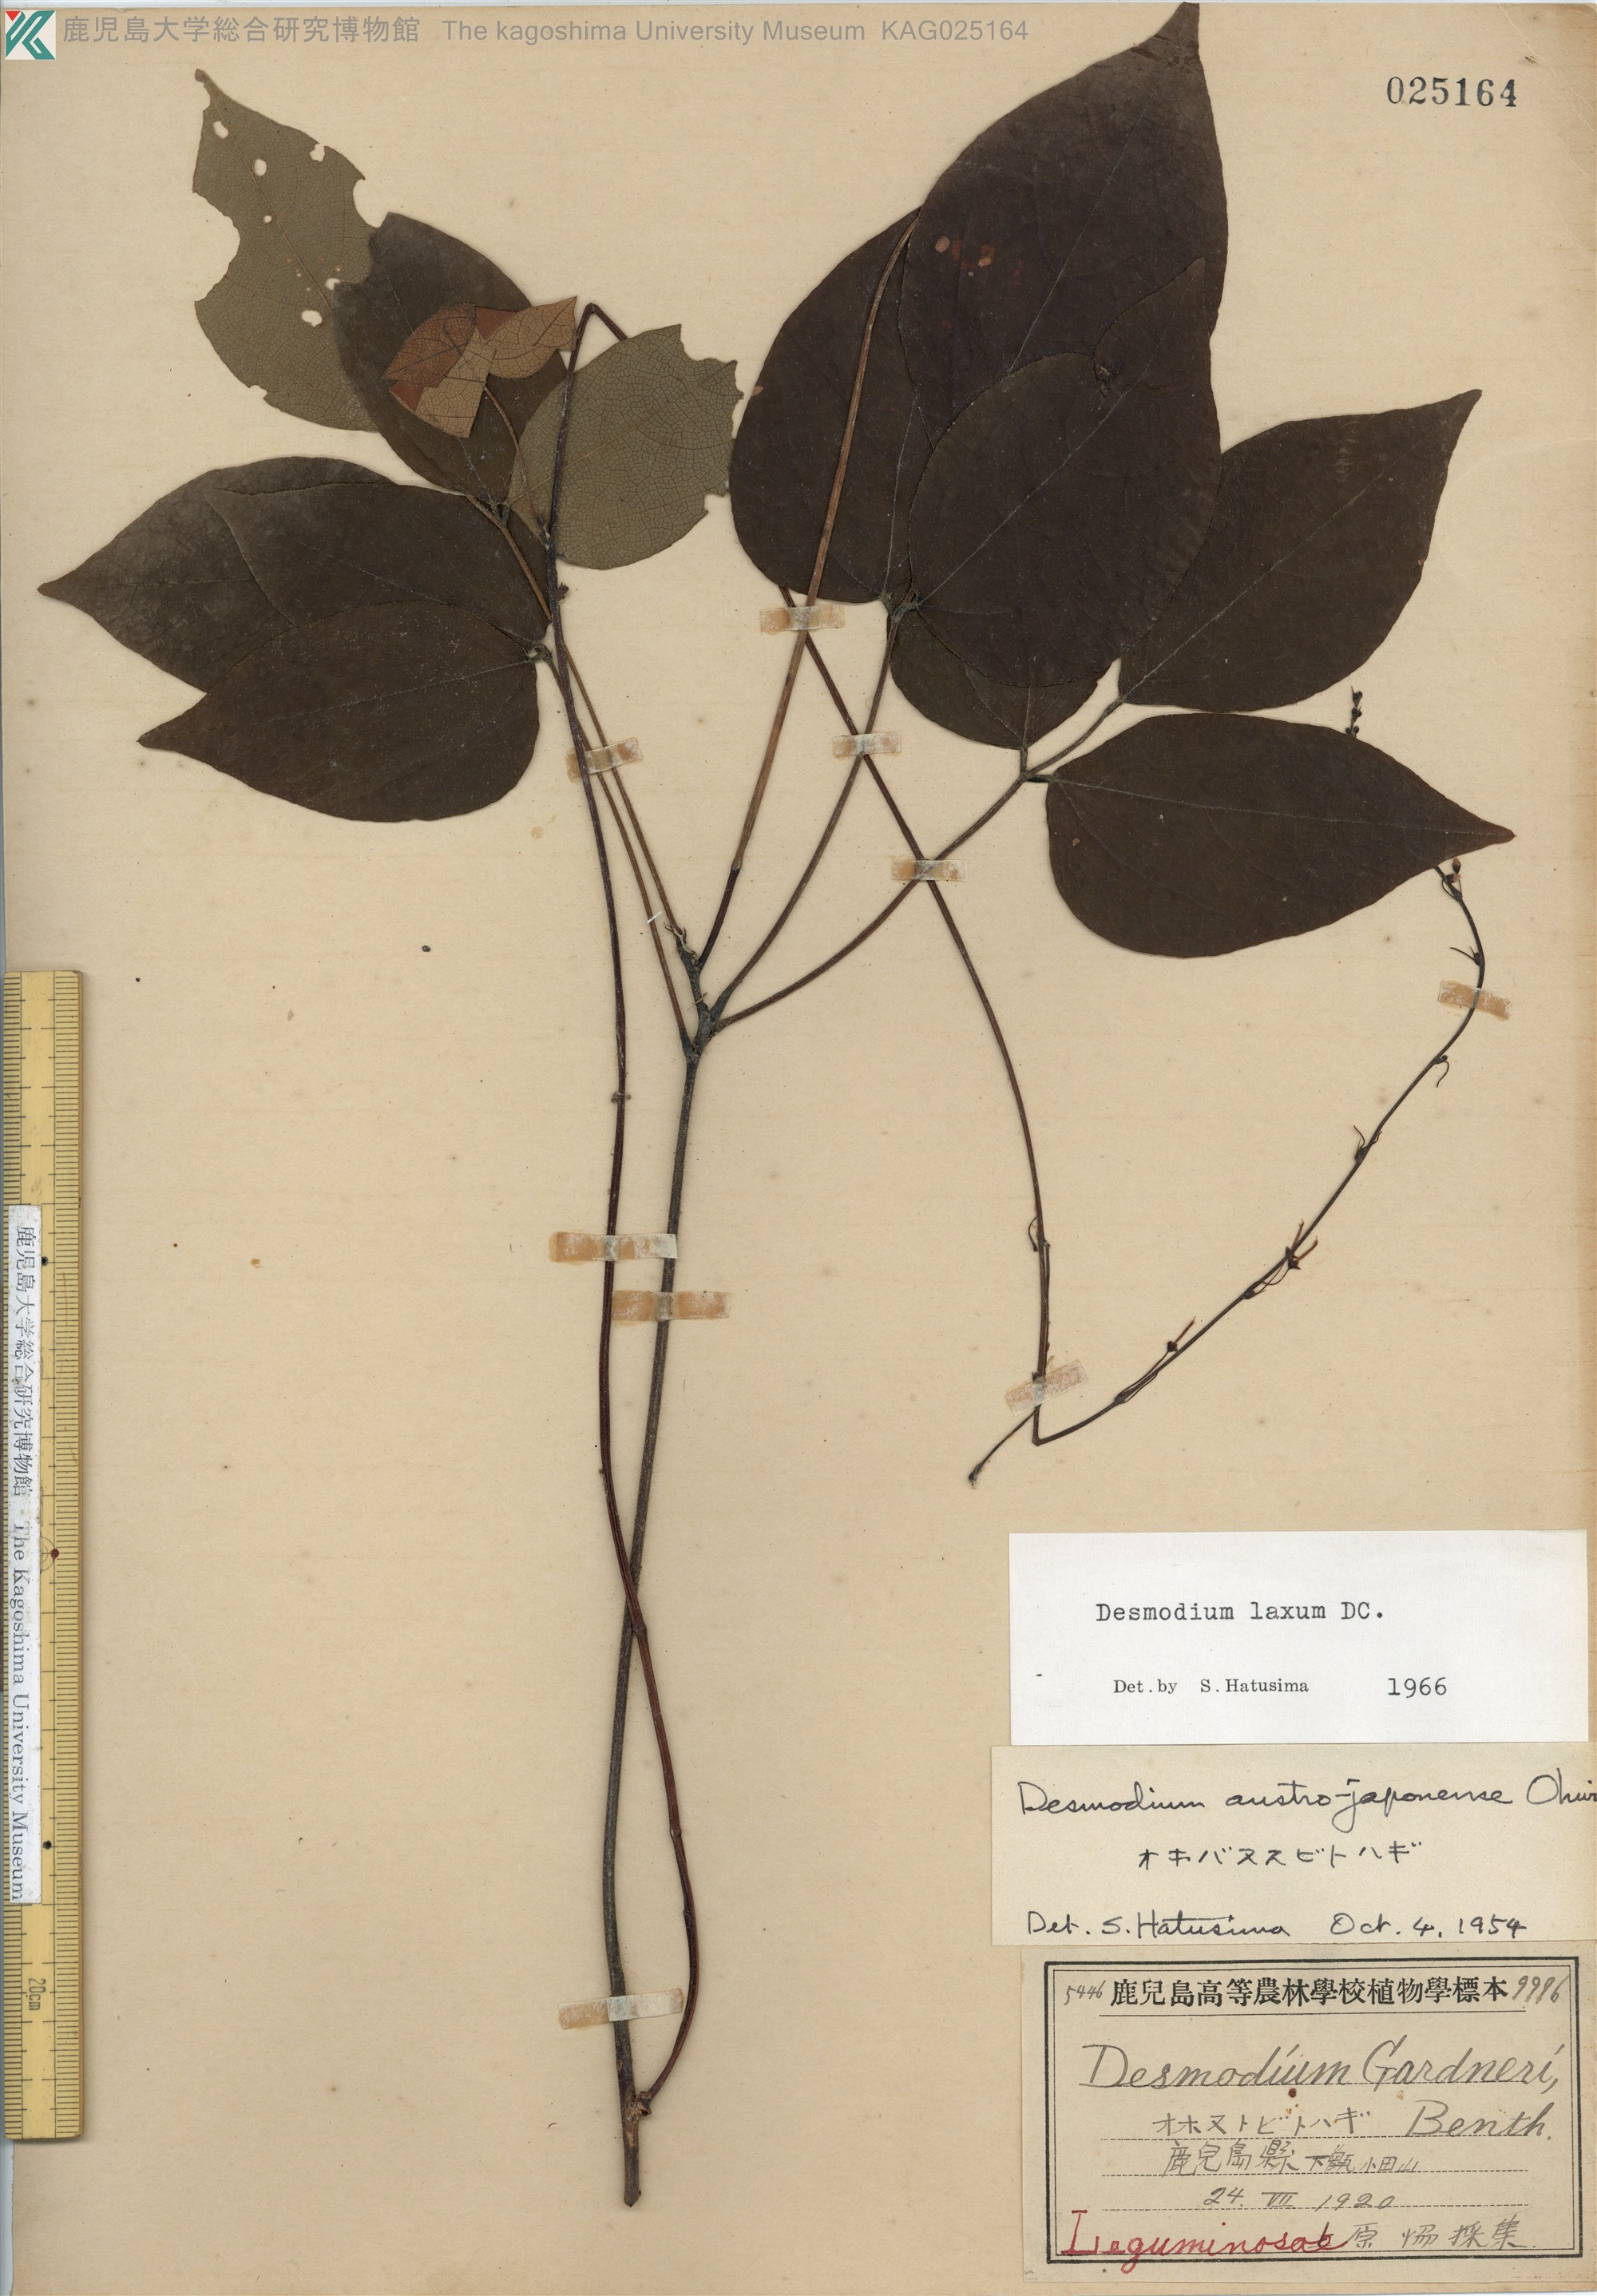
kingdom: Plantae
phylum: Tracheophyta
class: Magnoliopsida
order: Fabales
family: Fabaceae
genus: Desmodium
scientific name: Desmodium laxum
